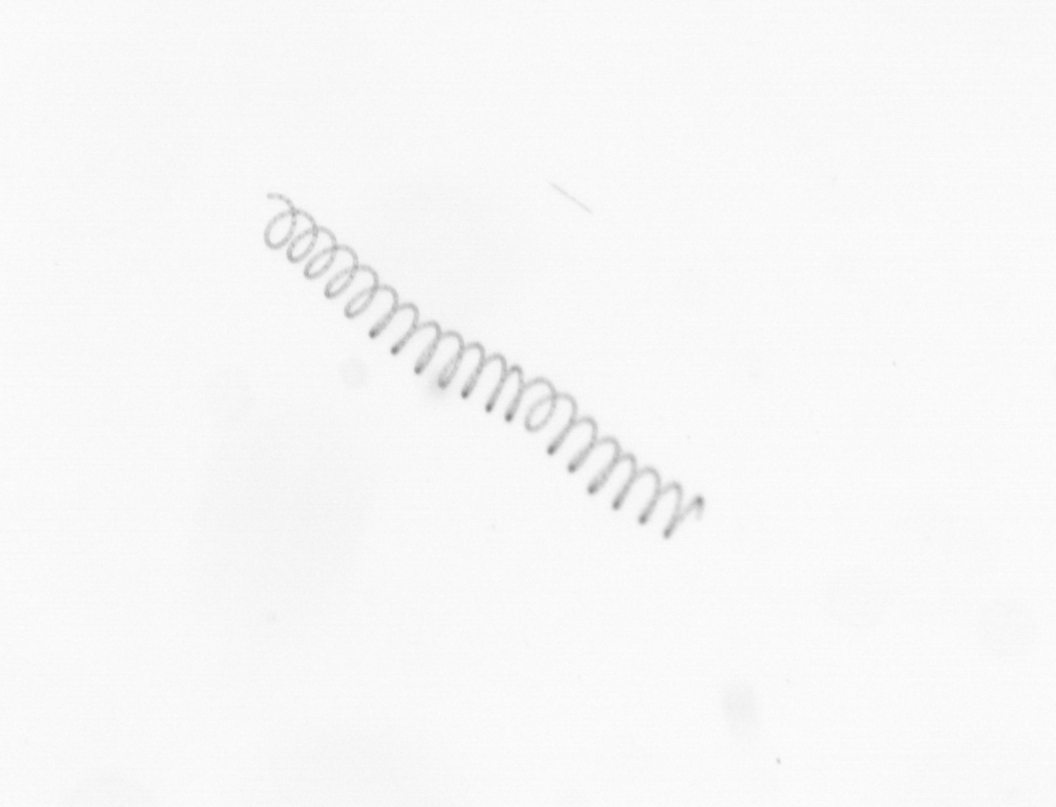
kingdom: Chromista
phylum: Ochrophyta
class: Bacillariophyceae
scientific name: Bacillariophyceae
